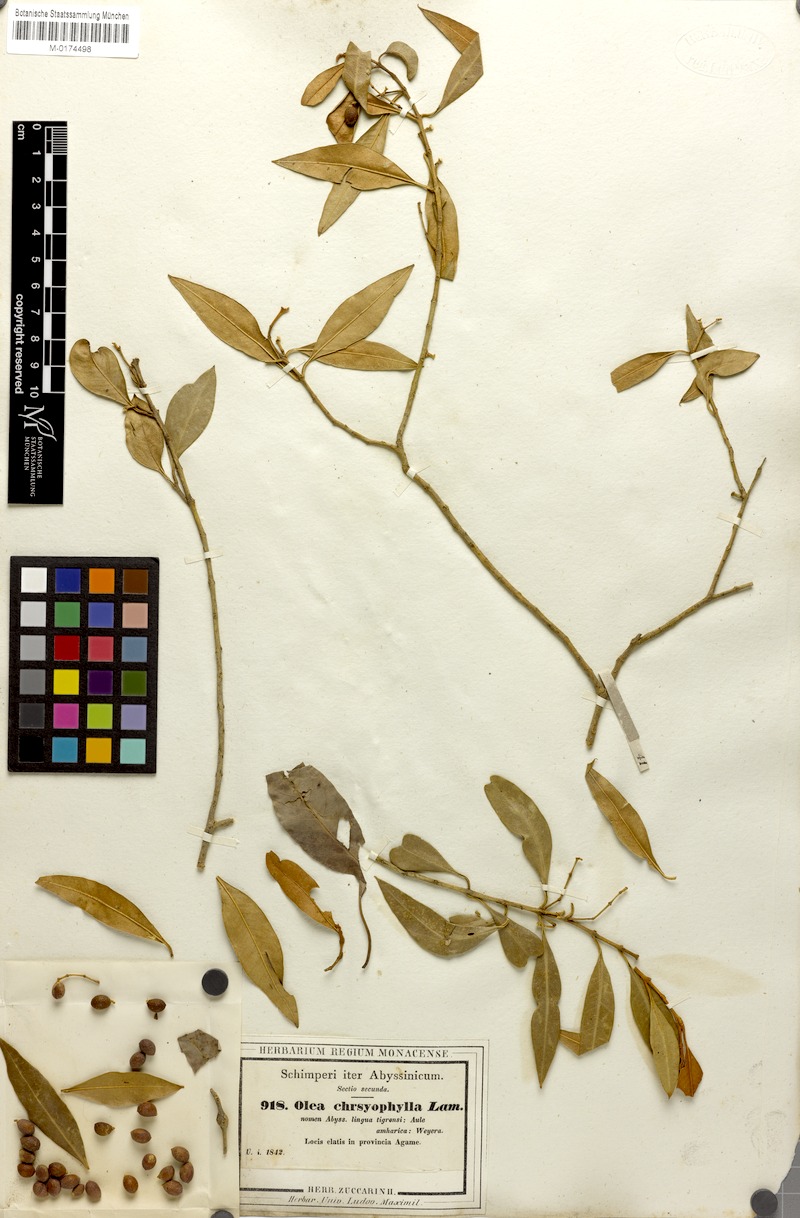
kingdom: Plantae
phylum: Tracheophyta
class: Magnoliopsida
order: Lamiales
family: Oleaceae
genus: Olea
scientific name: Olea europaea
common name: Olive
